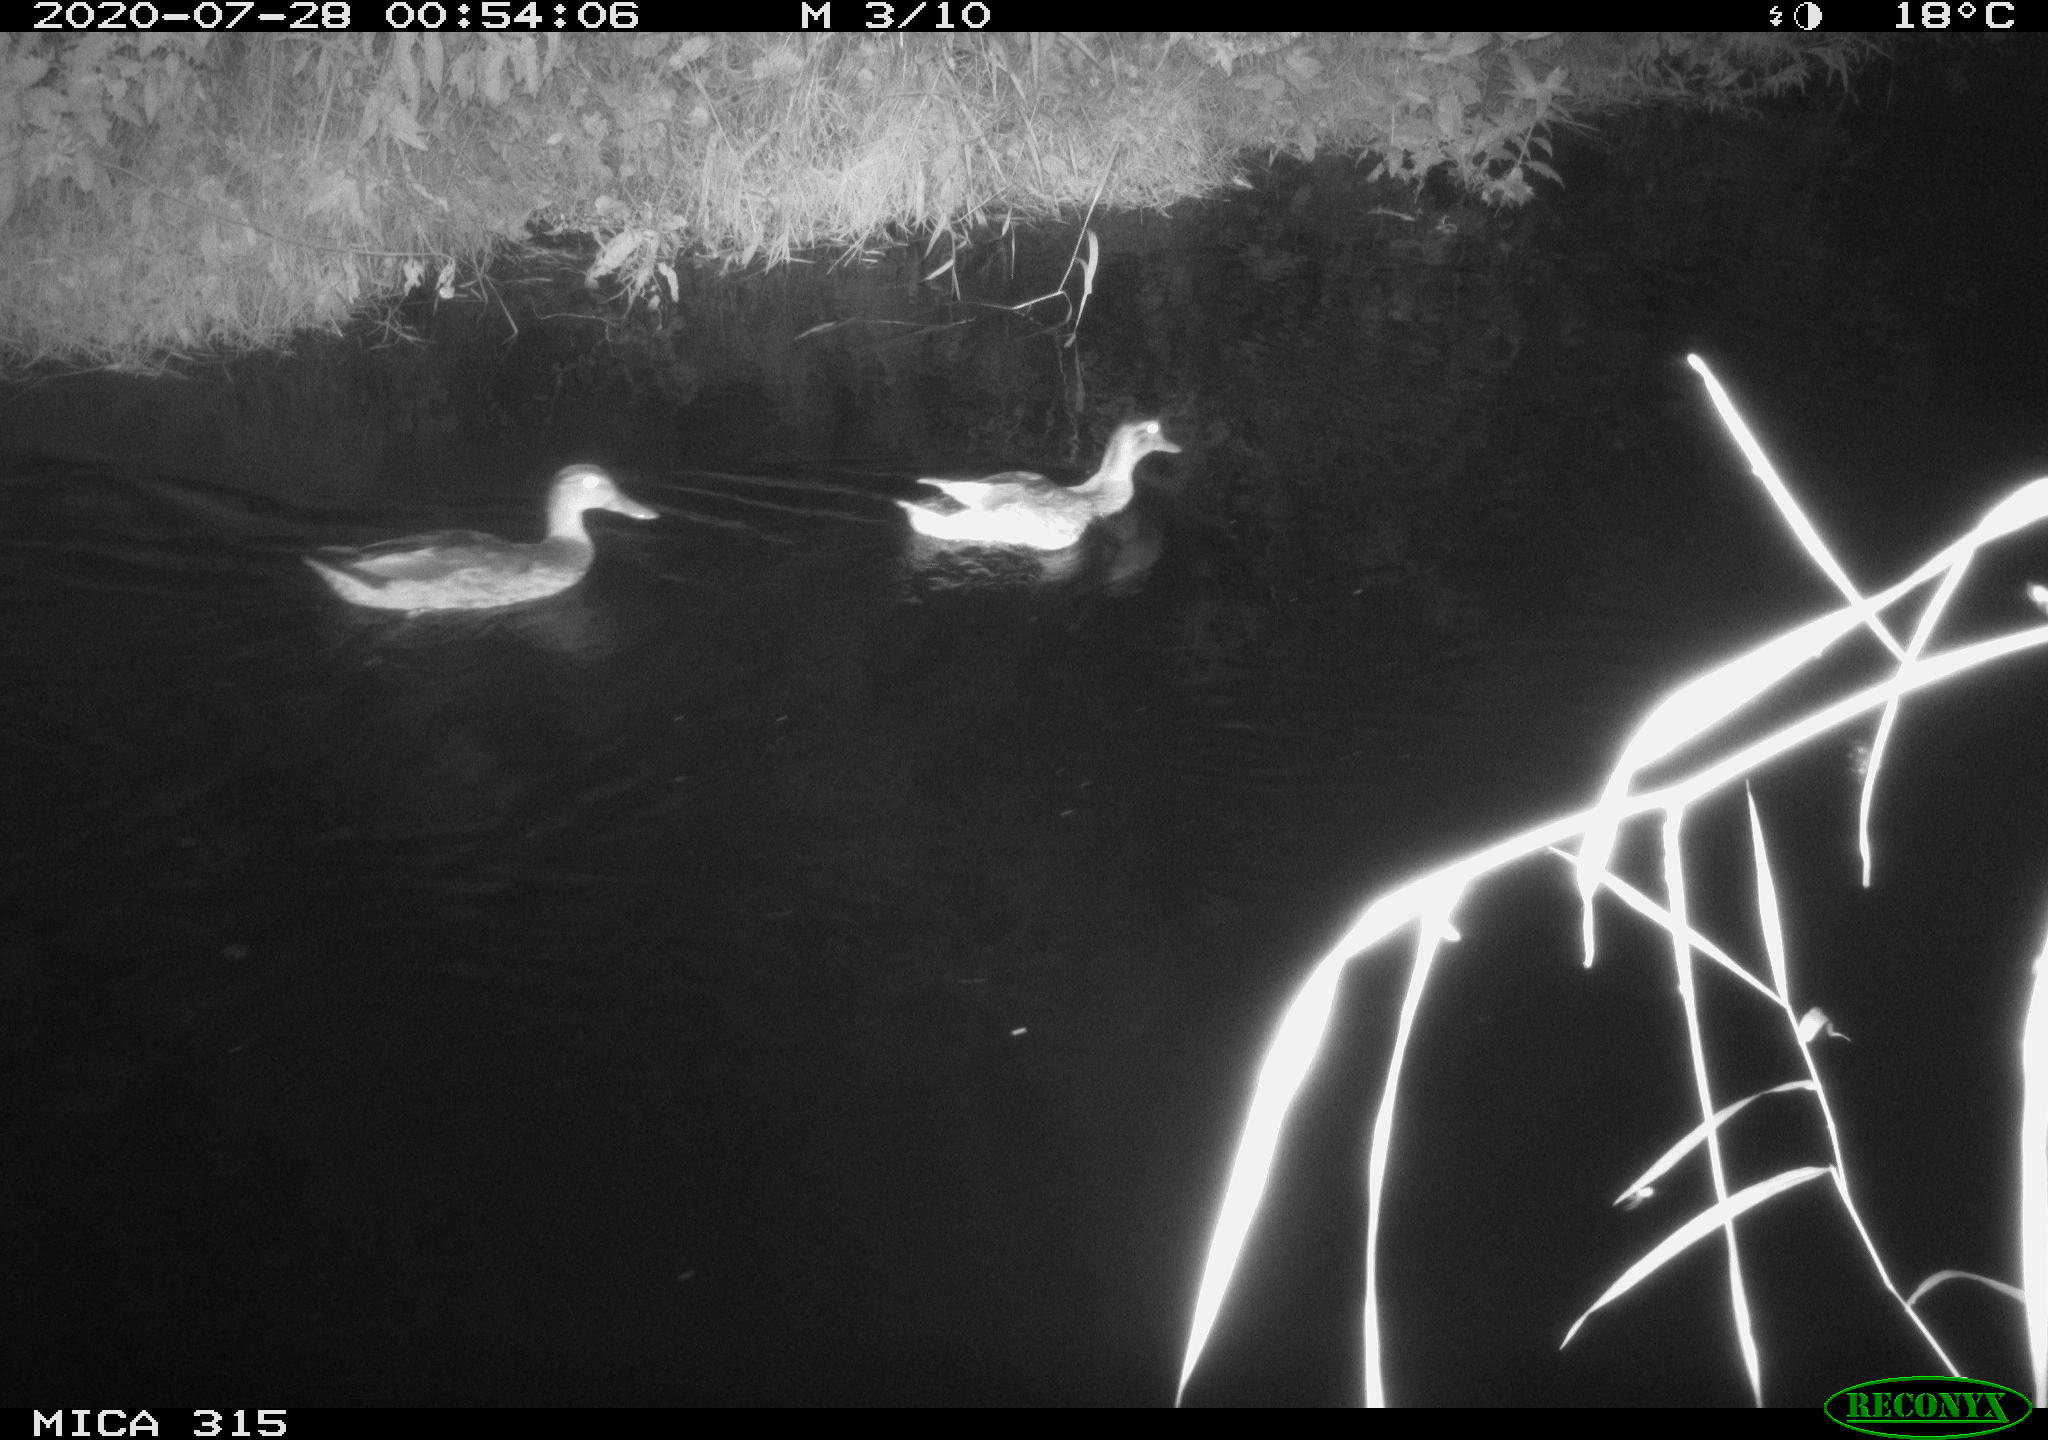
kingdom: Animalia
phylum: Chordata
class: Aves
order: Anseriformes
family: Anatidae
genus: Anas
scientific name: Anas platyrhynchos
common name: Mallard
